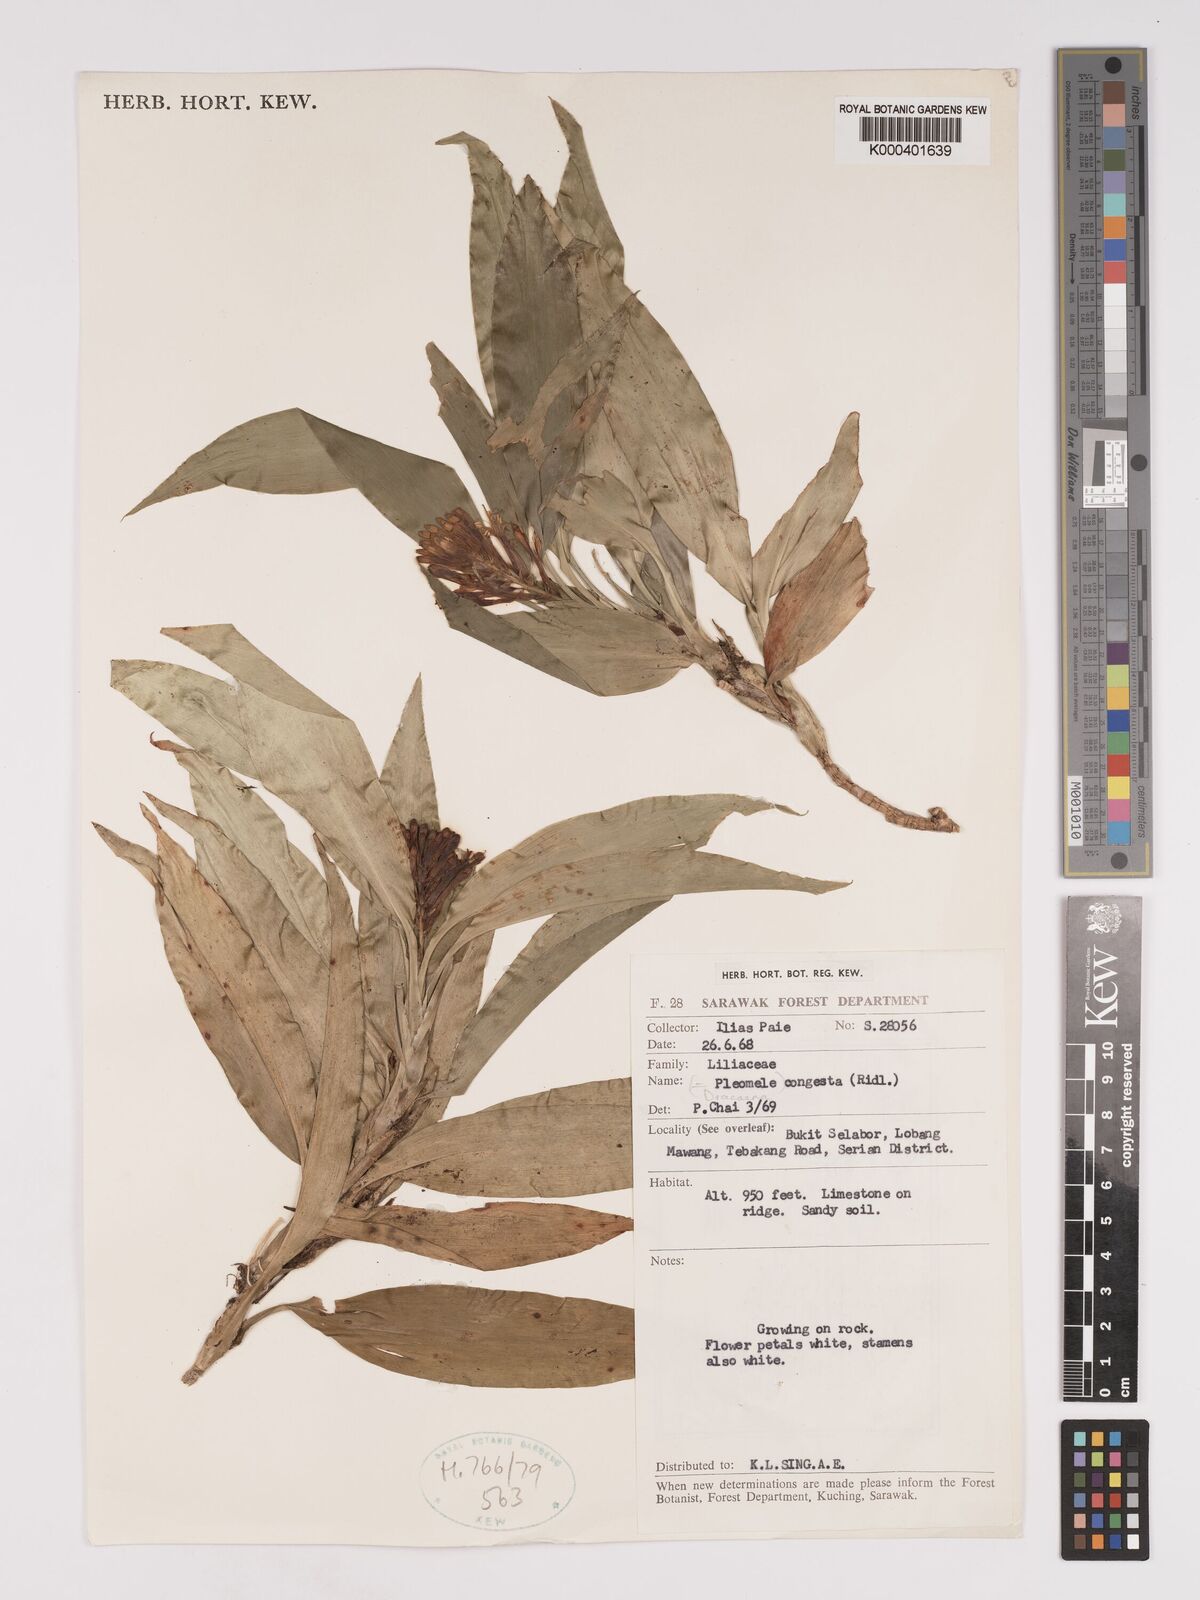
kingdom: Plantae
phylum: Tracheophyta
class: Liliopsida
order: Asparagales
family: Asparagaceae
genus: Dracaena
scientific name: Dracaena chiniana
